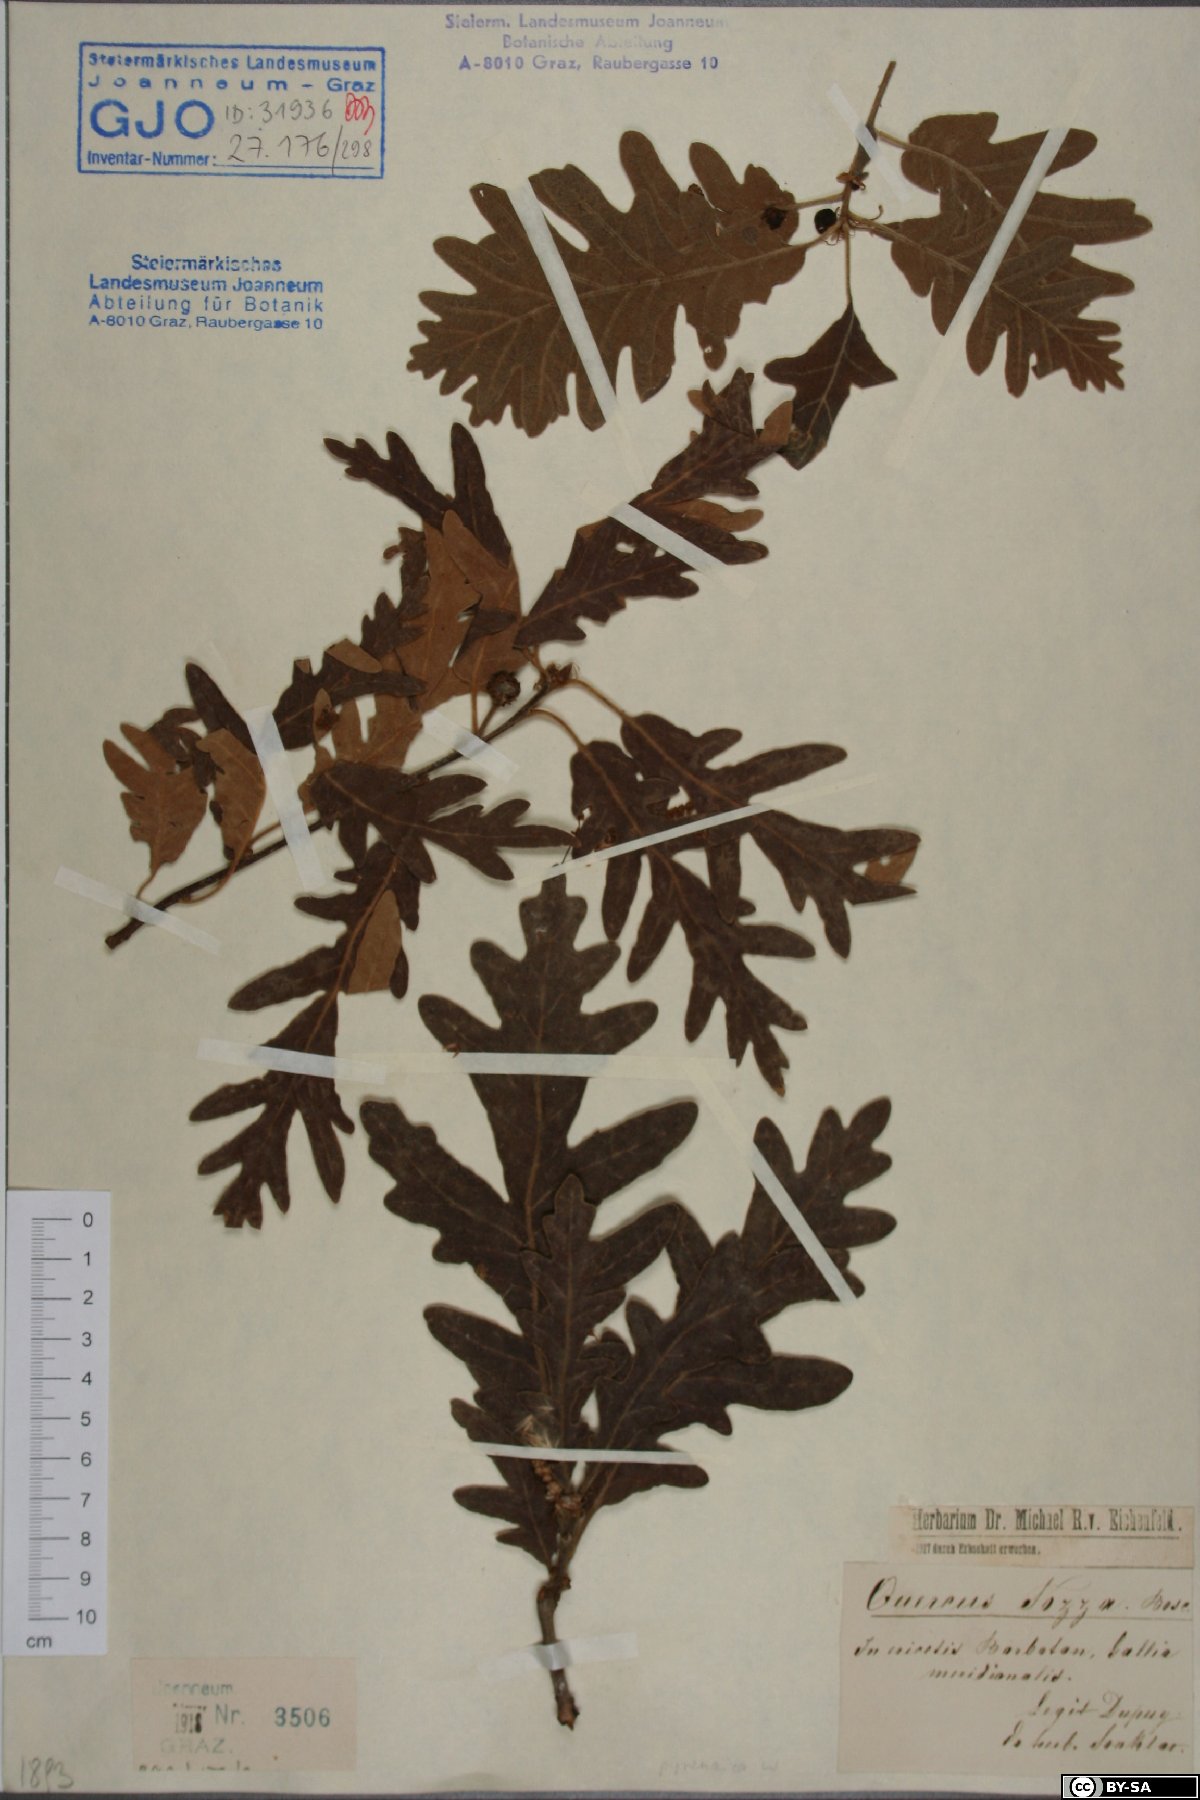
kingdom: Plantae
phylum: Tracheophyta
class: Magnoliopsida
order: Fagales
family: Fagaceae
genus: Quercus
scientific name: Quercus pyrenaica
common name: Pyrenean oak
